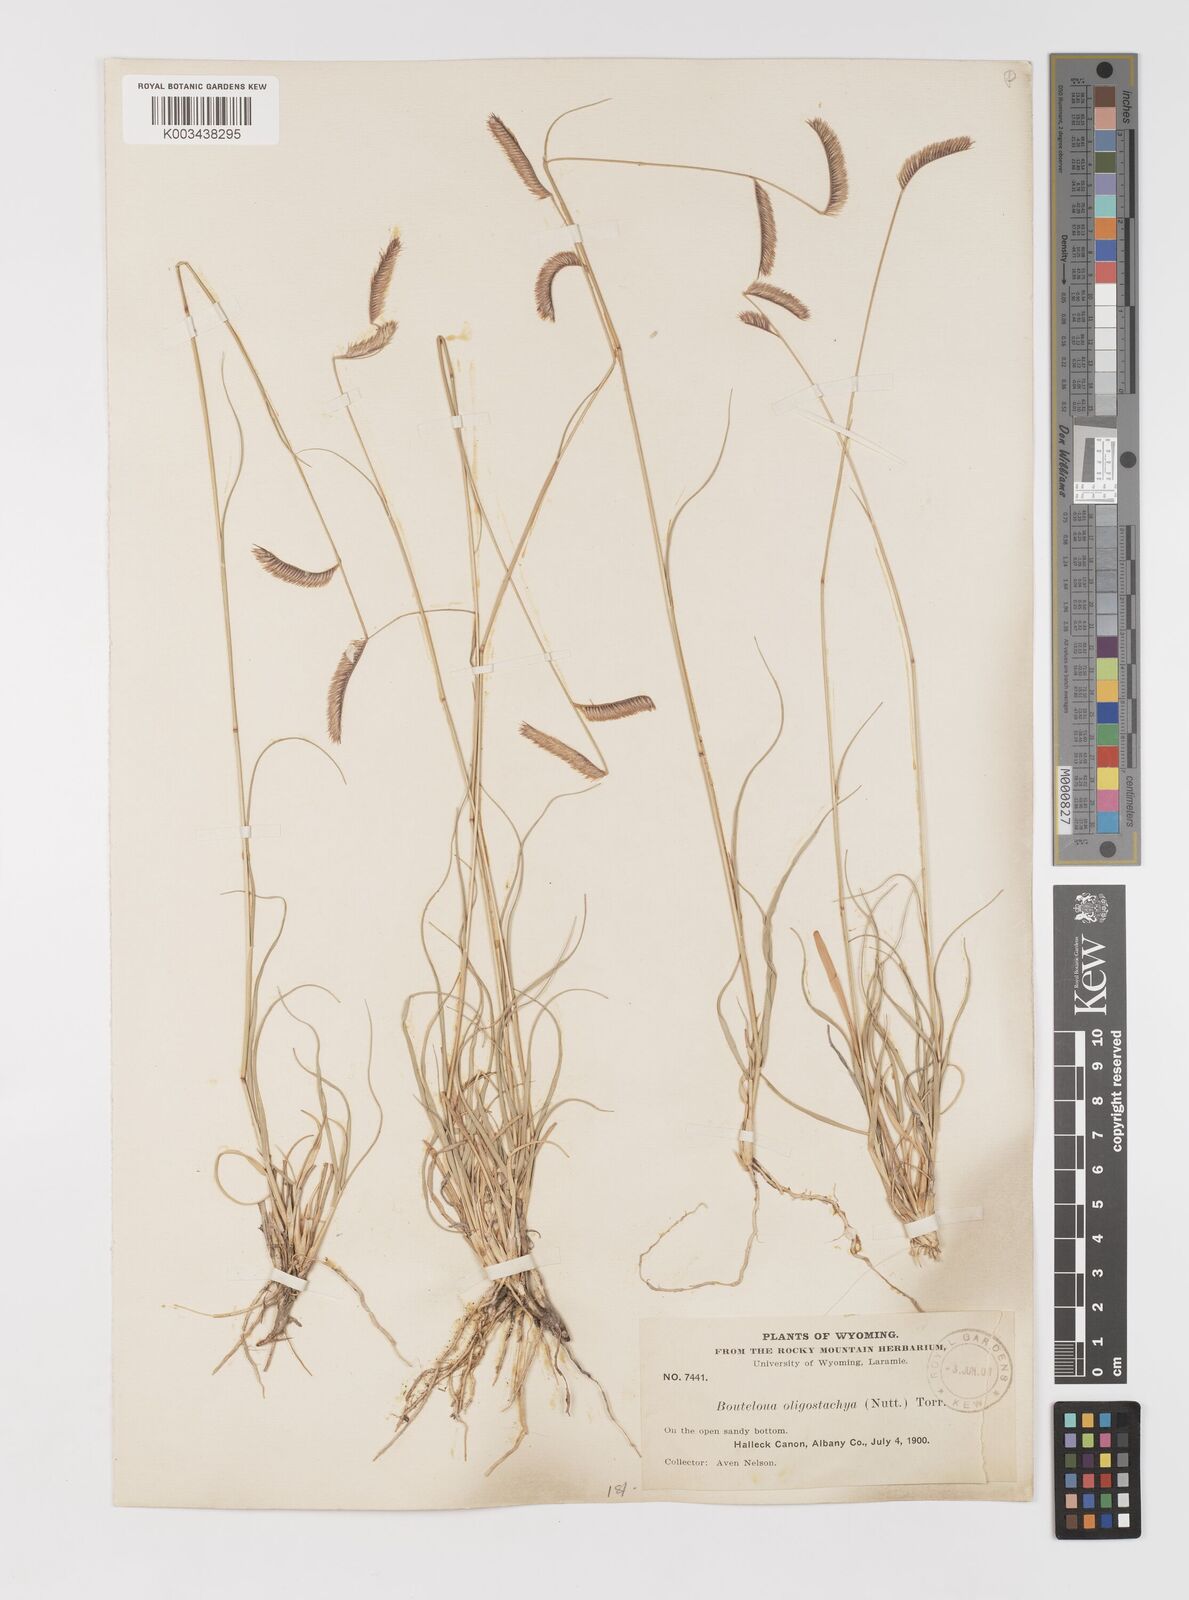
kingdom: Plantae
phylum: Tracheophyta
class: Liliopsida
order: Poales
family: Poaceae
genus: Bouteloua
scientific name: Bouteloua
